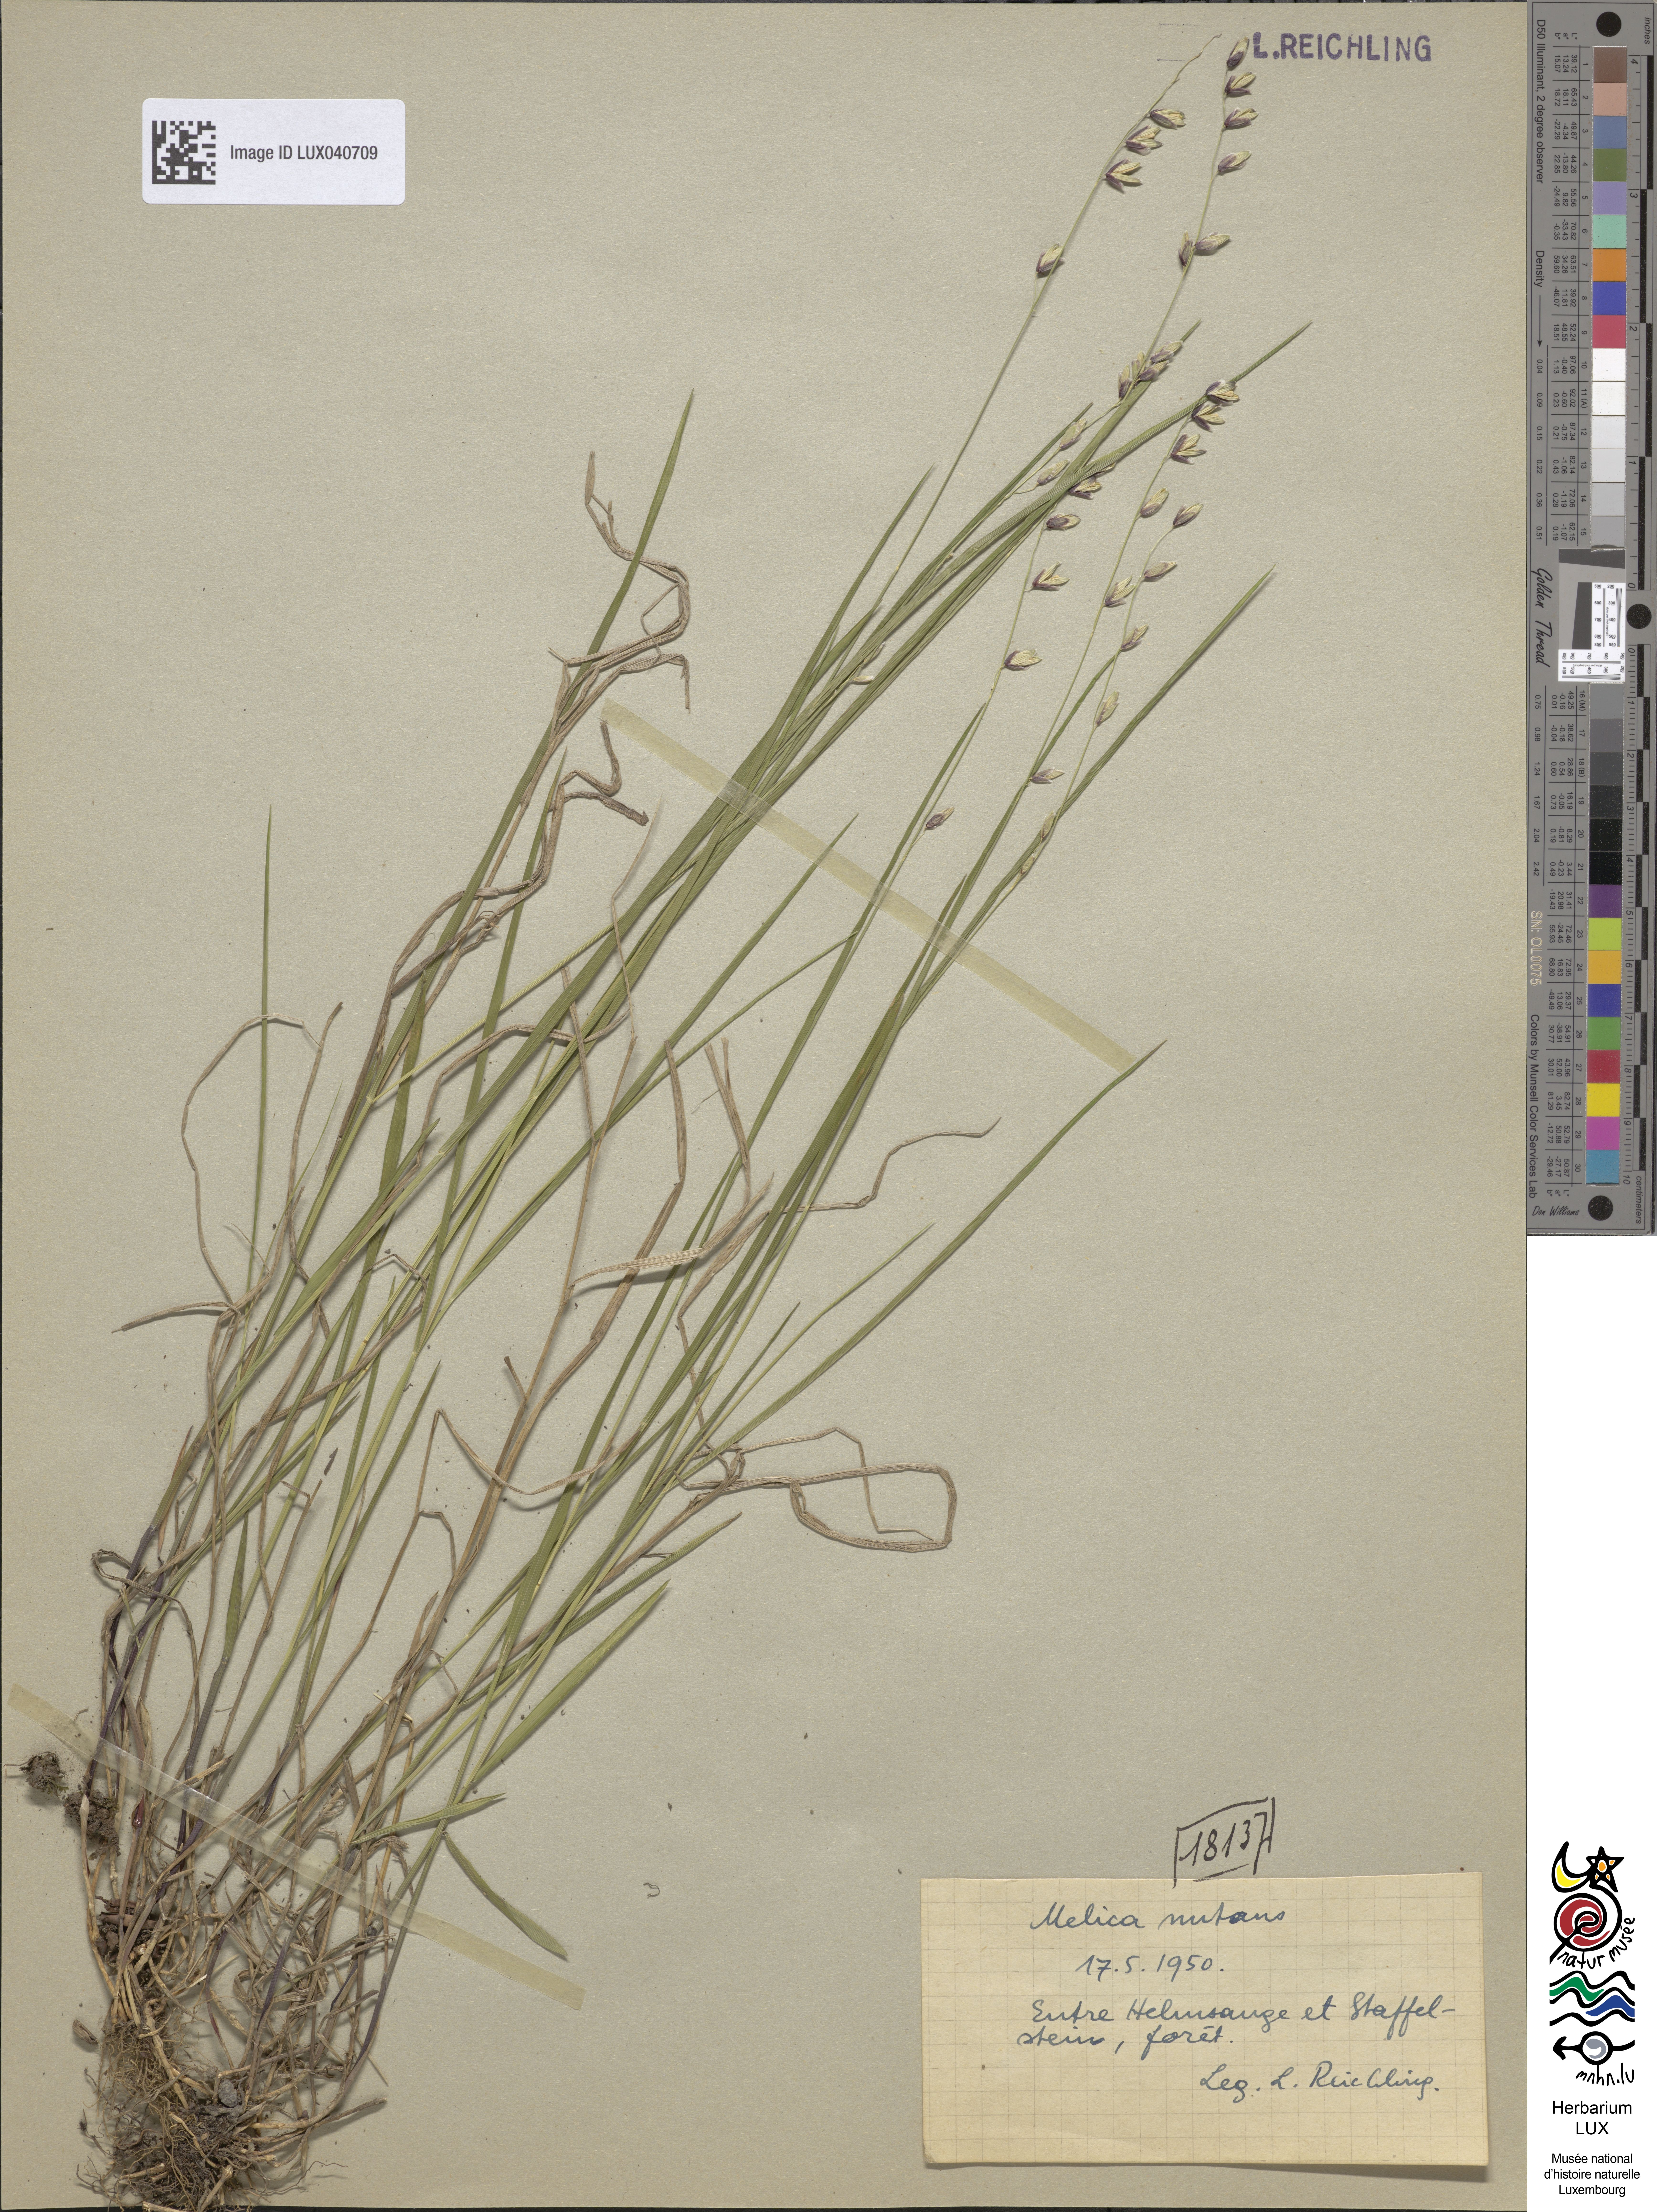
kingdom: Plantae
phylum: Tracheophyta
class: Liliopsida
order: Poales
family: Poaceae
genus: Melica
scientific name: Melica nutans
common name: Mountain melick
